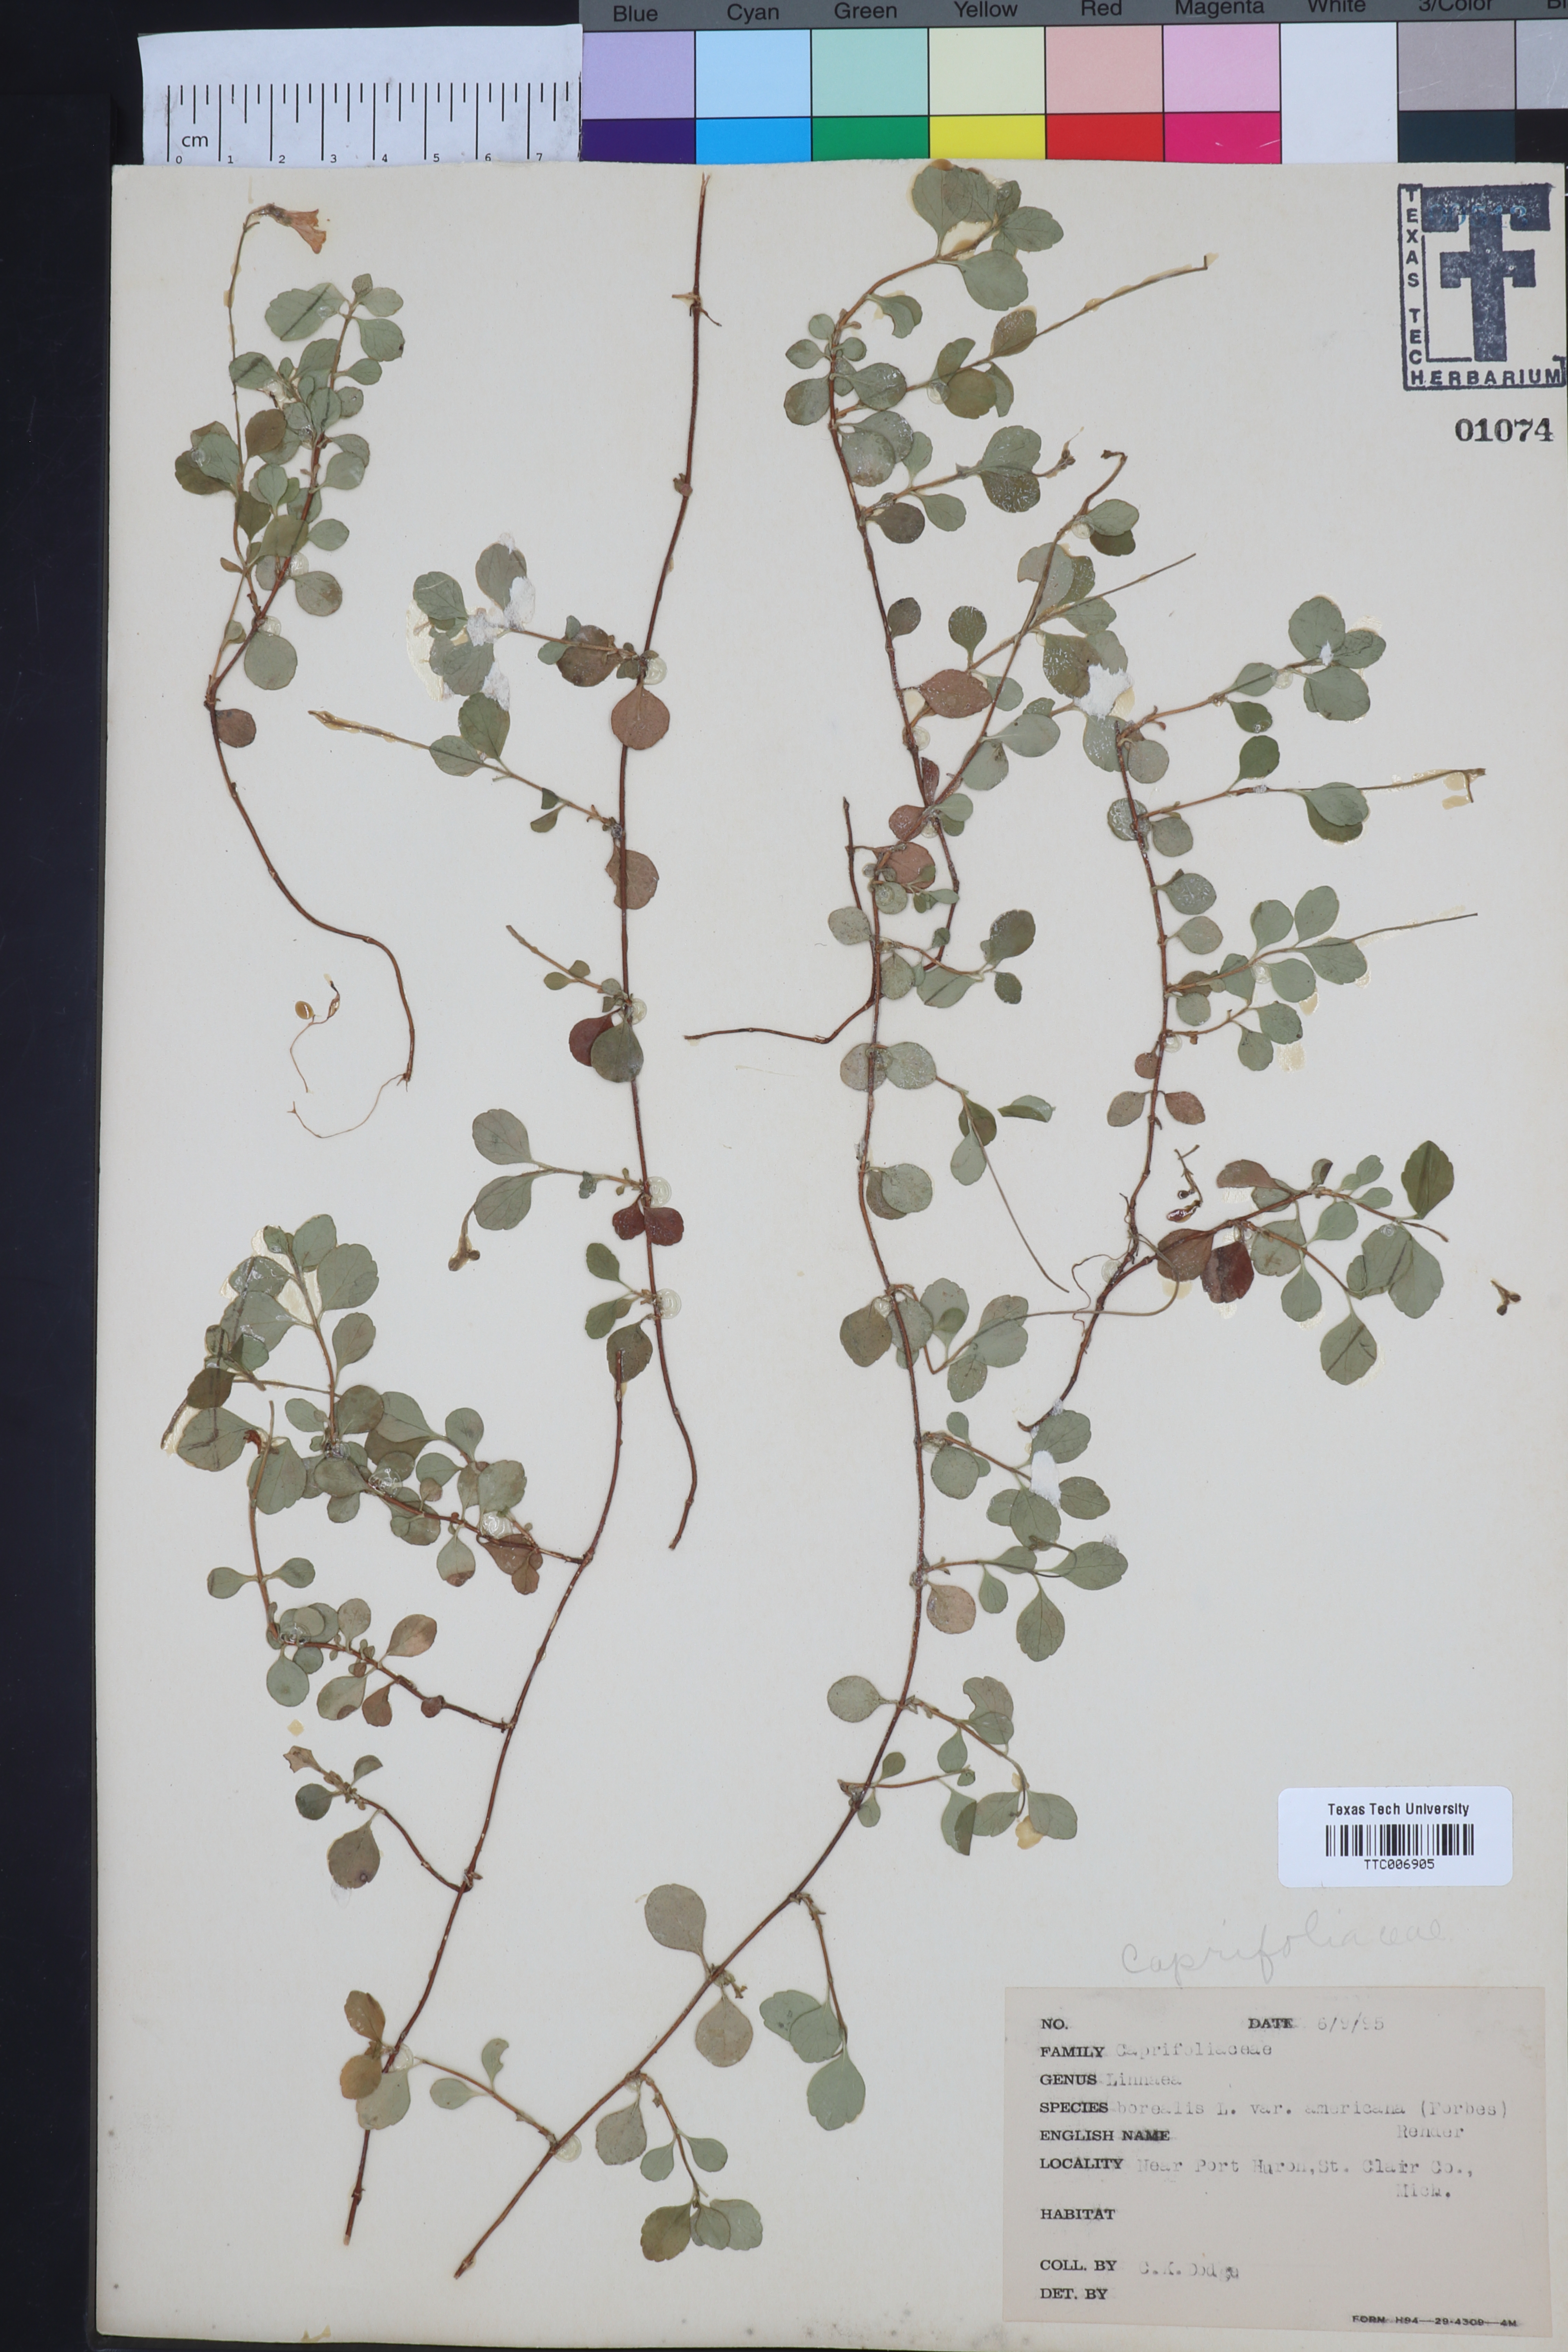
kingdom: Plantae
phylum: Tracheophyta
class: Magnoliopsida
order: Dipsacales
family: Caprifoliaceae
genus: Linnaea
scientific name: Linnaea borealis
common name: Twinflower
